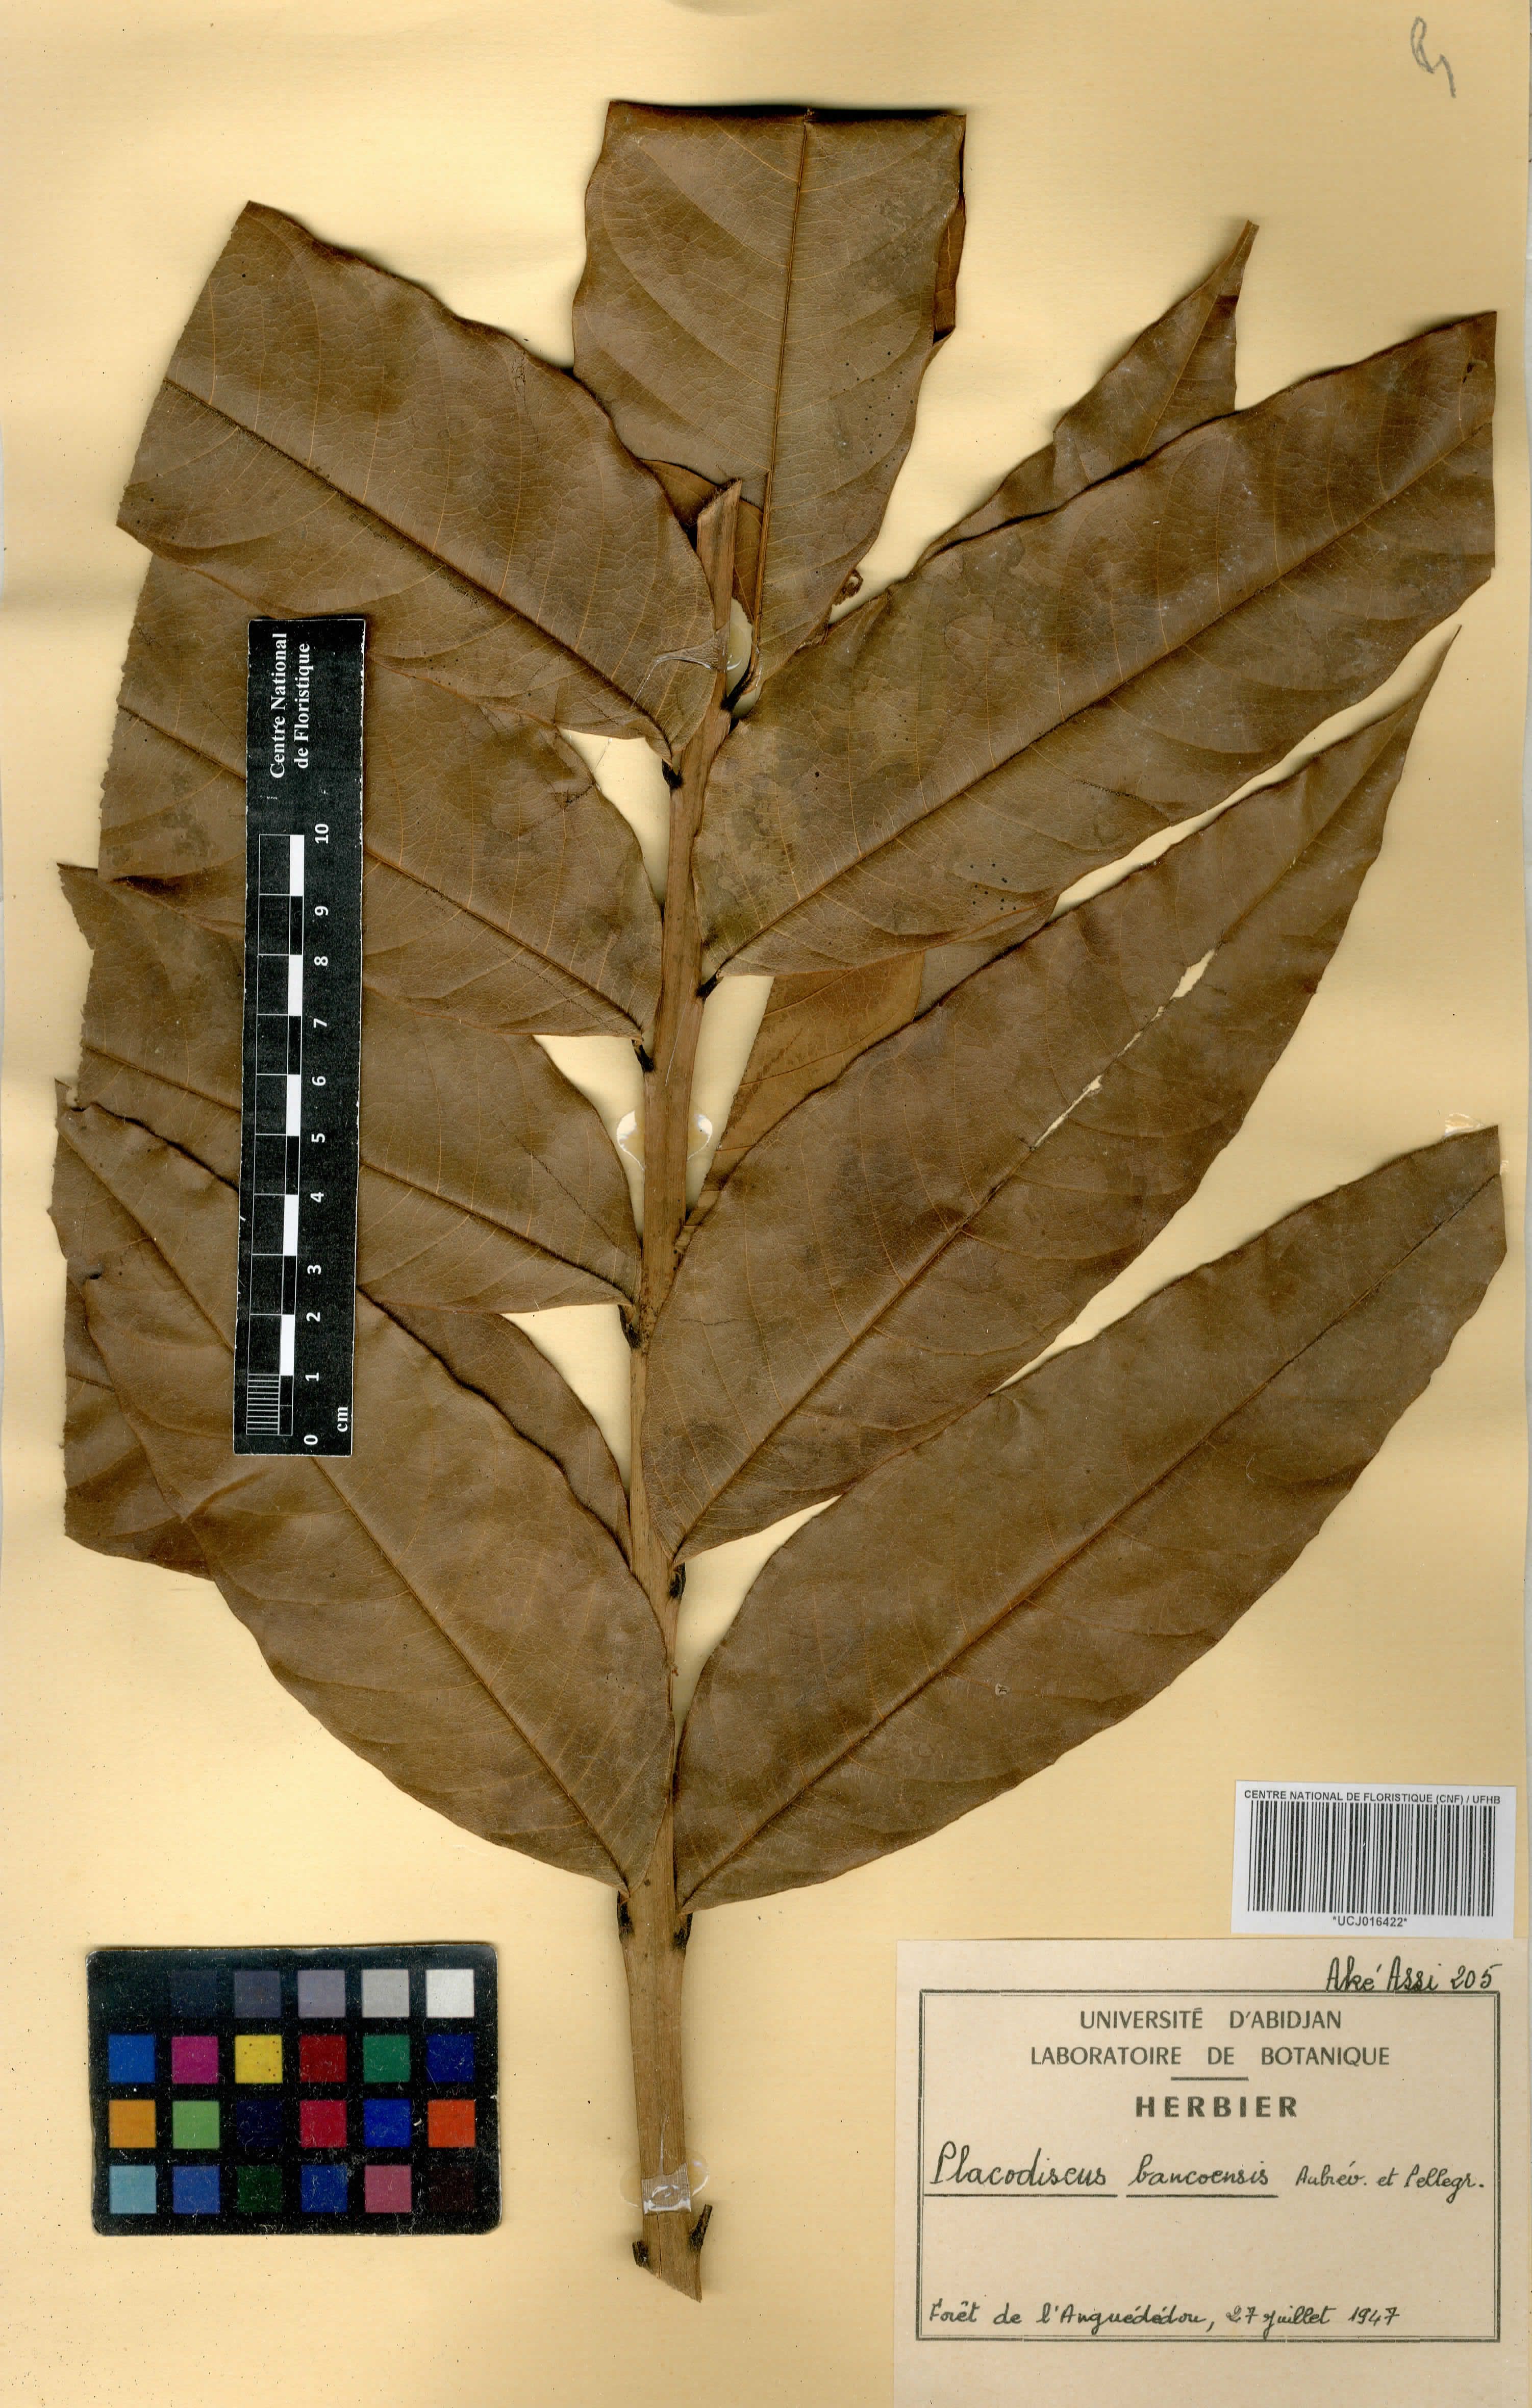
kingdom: Plantae
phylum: Tracheophyta
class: Magnoliopsida
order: Sapindales
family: Sapindaceae
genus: Placodiscus
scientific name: Placodiscus bancoensis
